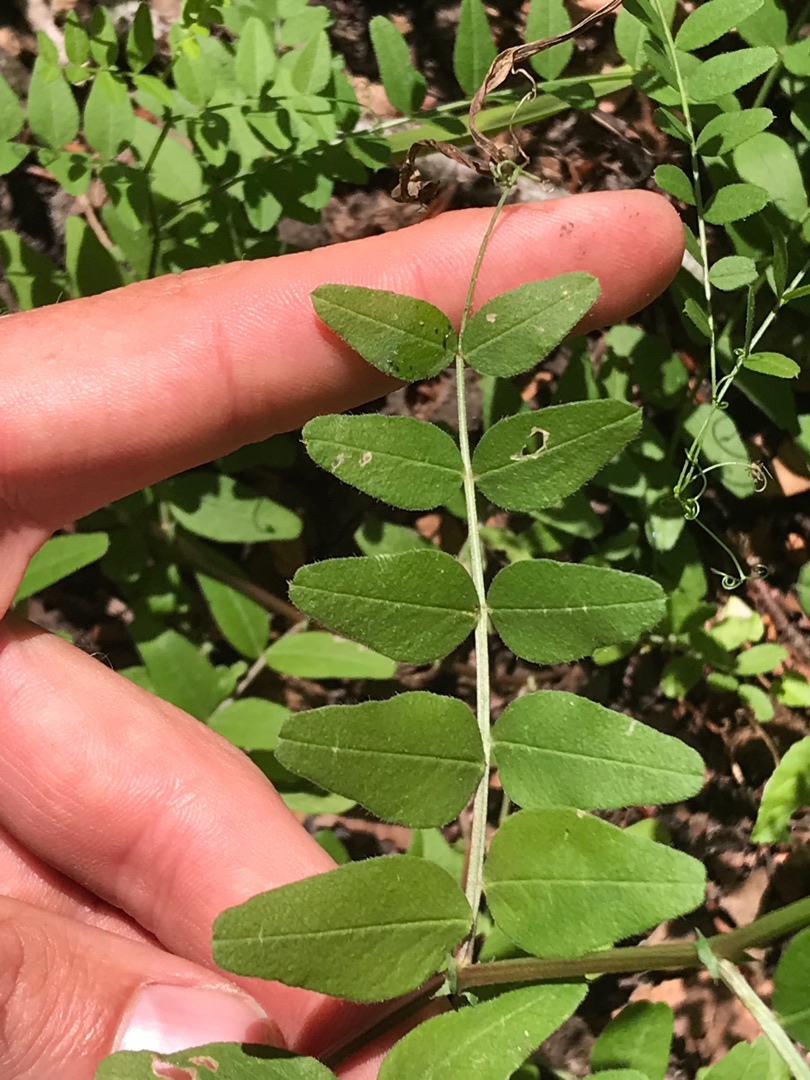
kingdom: Plantae
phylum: Tracheophyta
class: Magnoliopsida
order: Fabales
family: Fabaceae
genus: Vicia
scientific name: Vicia sepium
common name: Gærde-vikke
